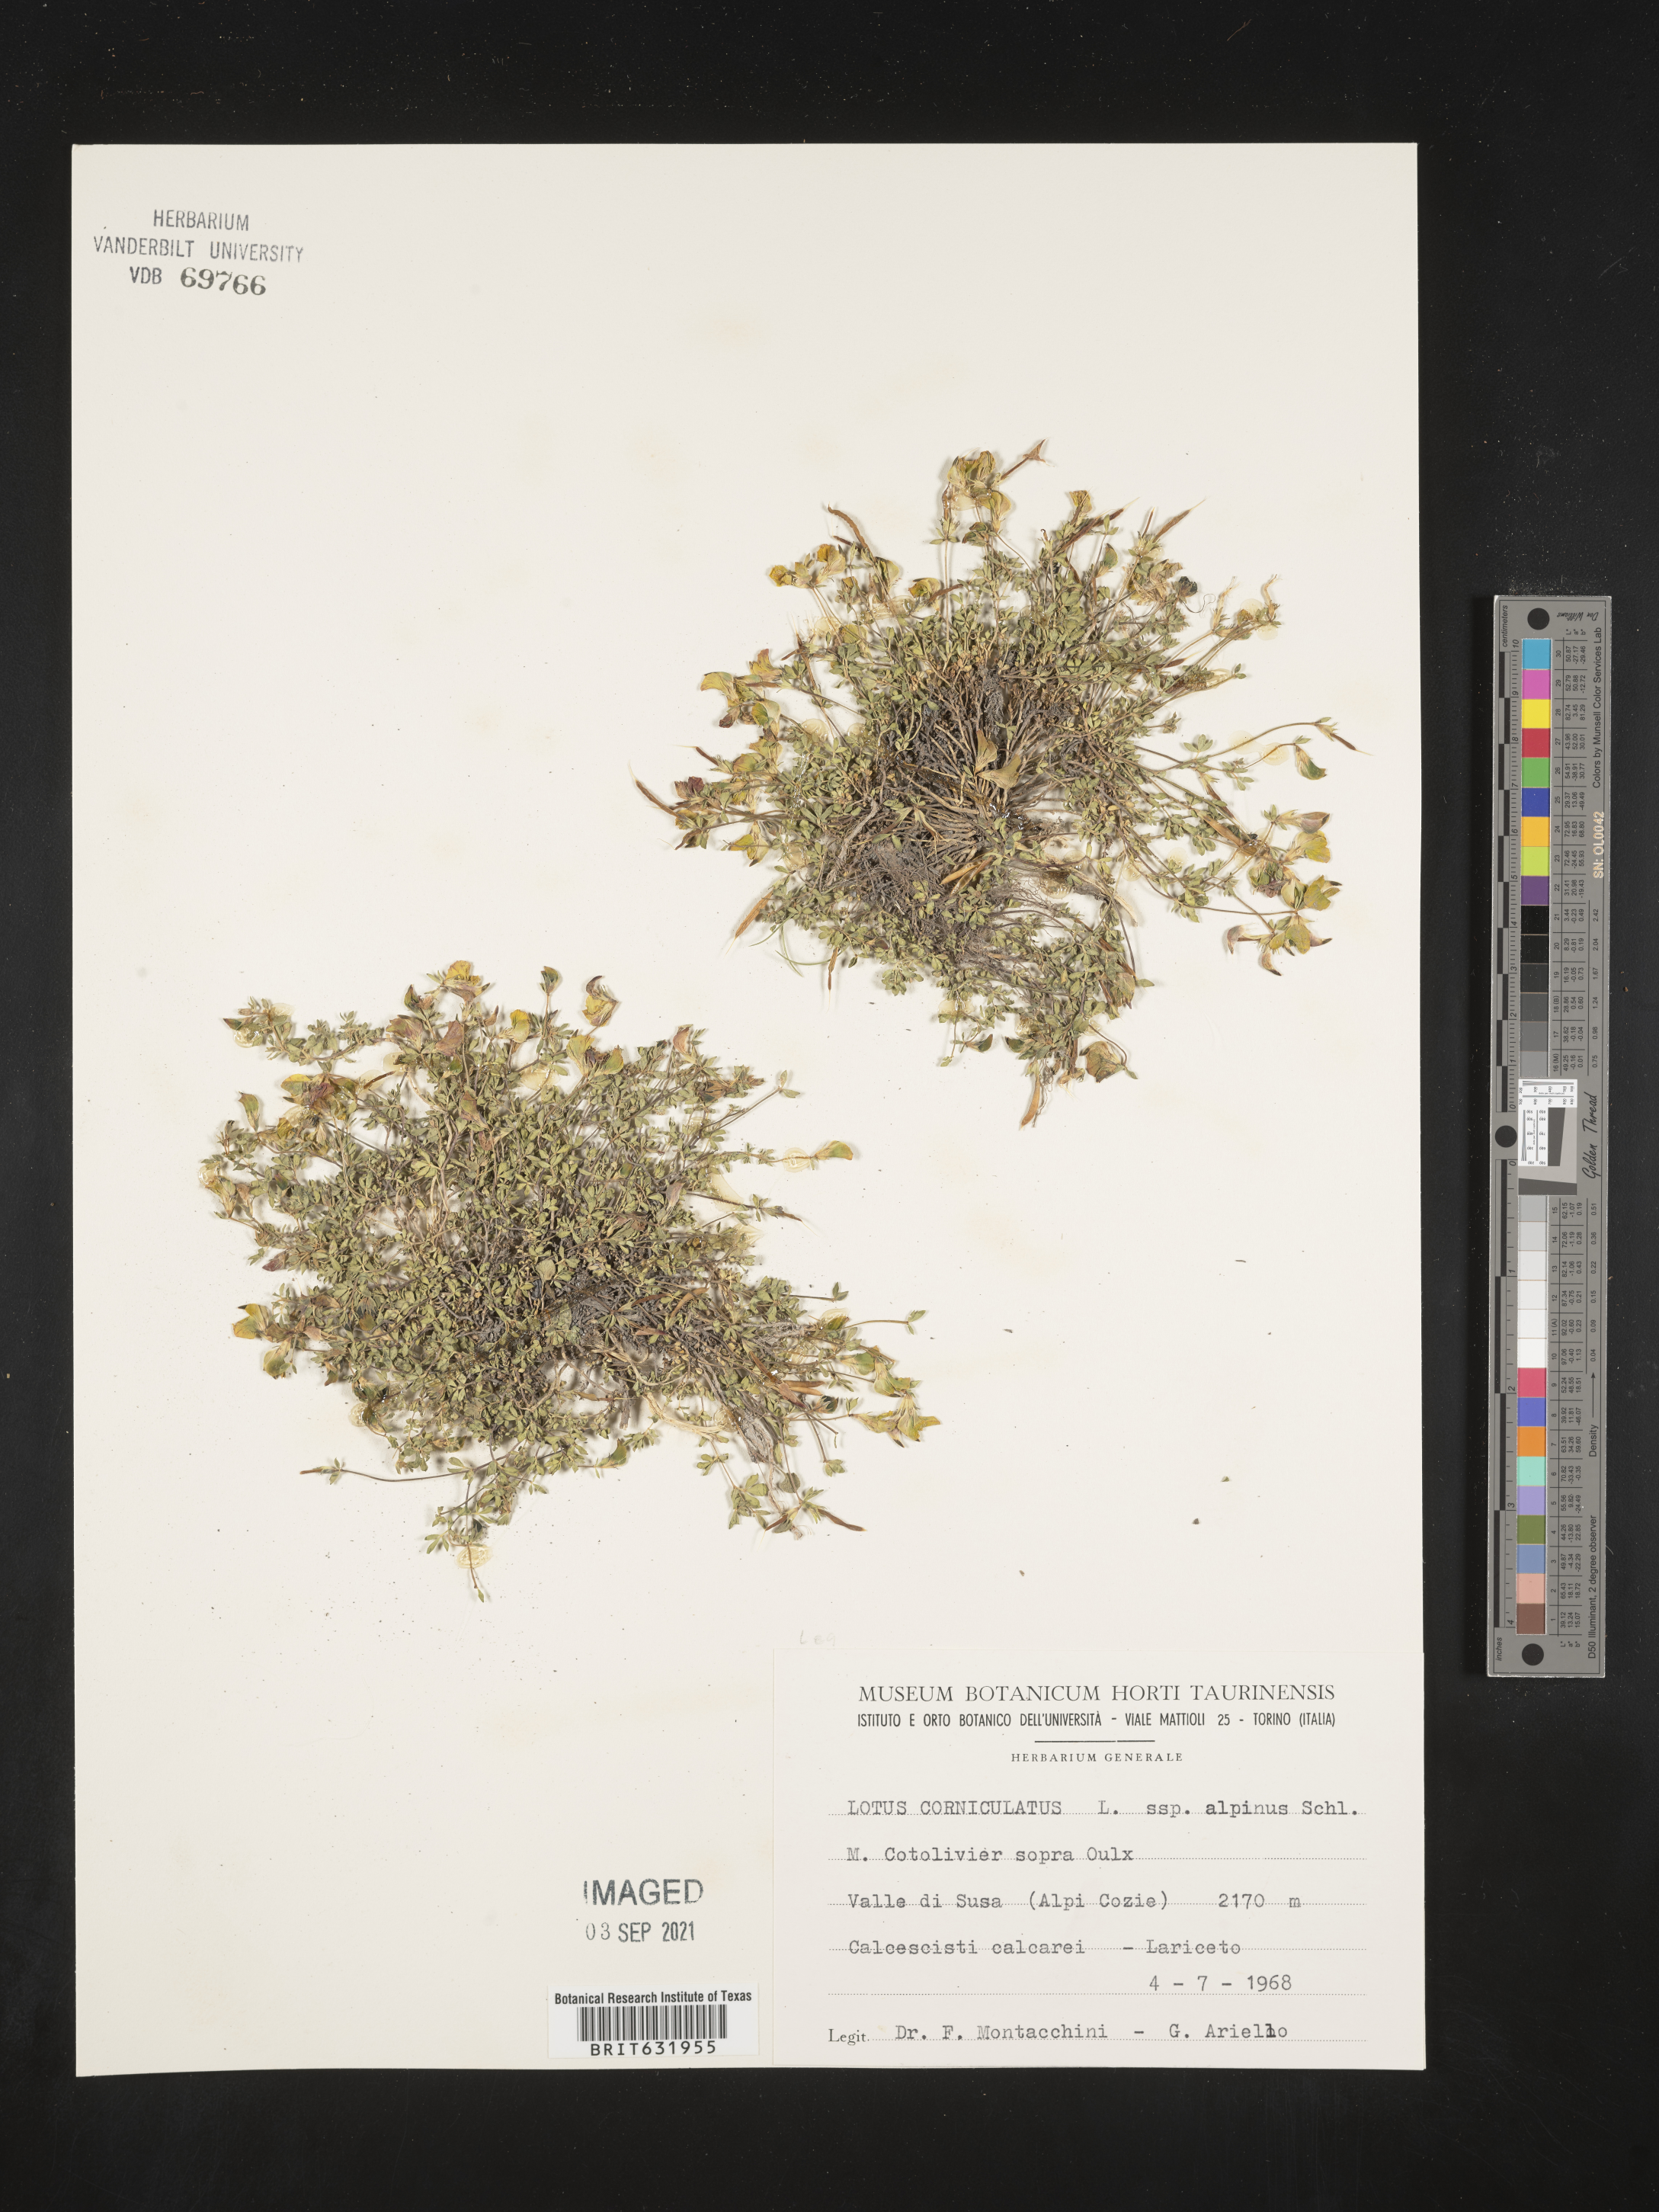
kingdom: Plantae
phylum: Tracheophyta
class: Magnoliopsida
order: Fabales
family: Fabaceae
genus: Lotus
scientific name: Lotus
